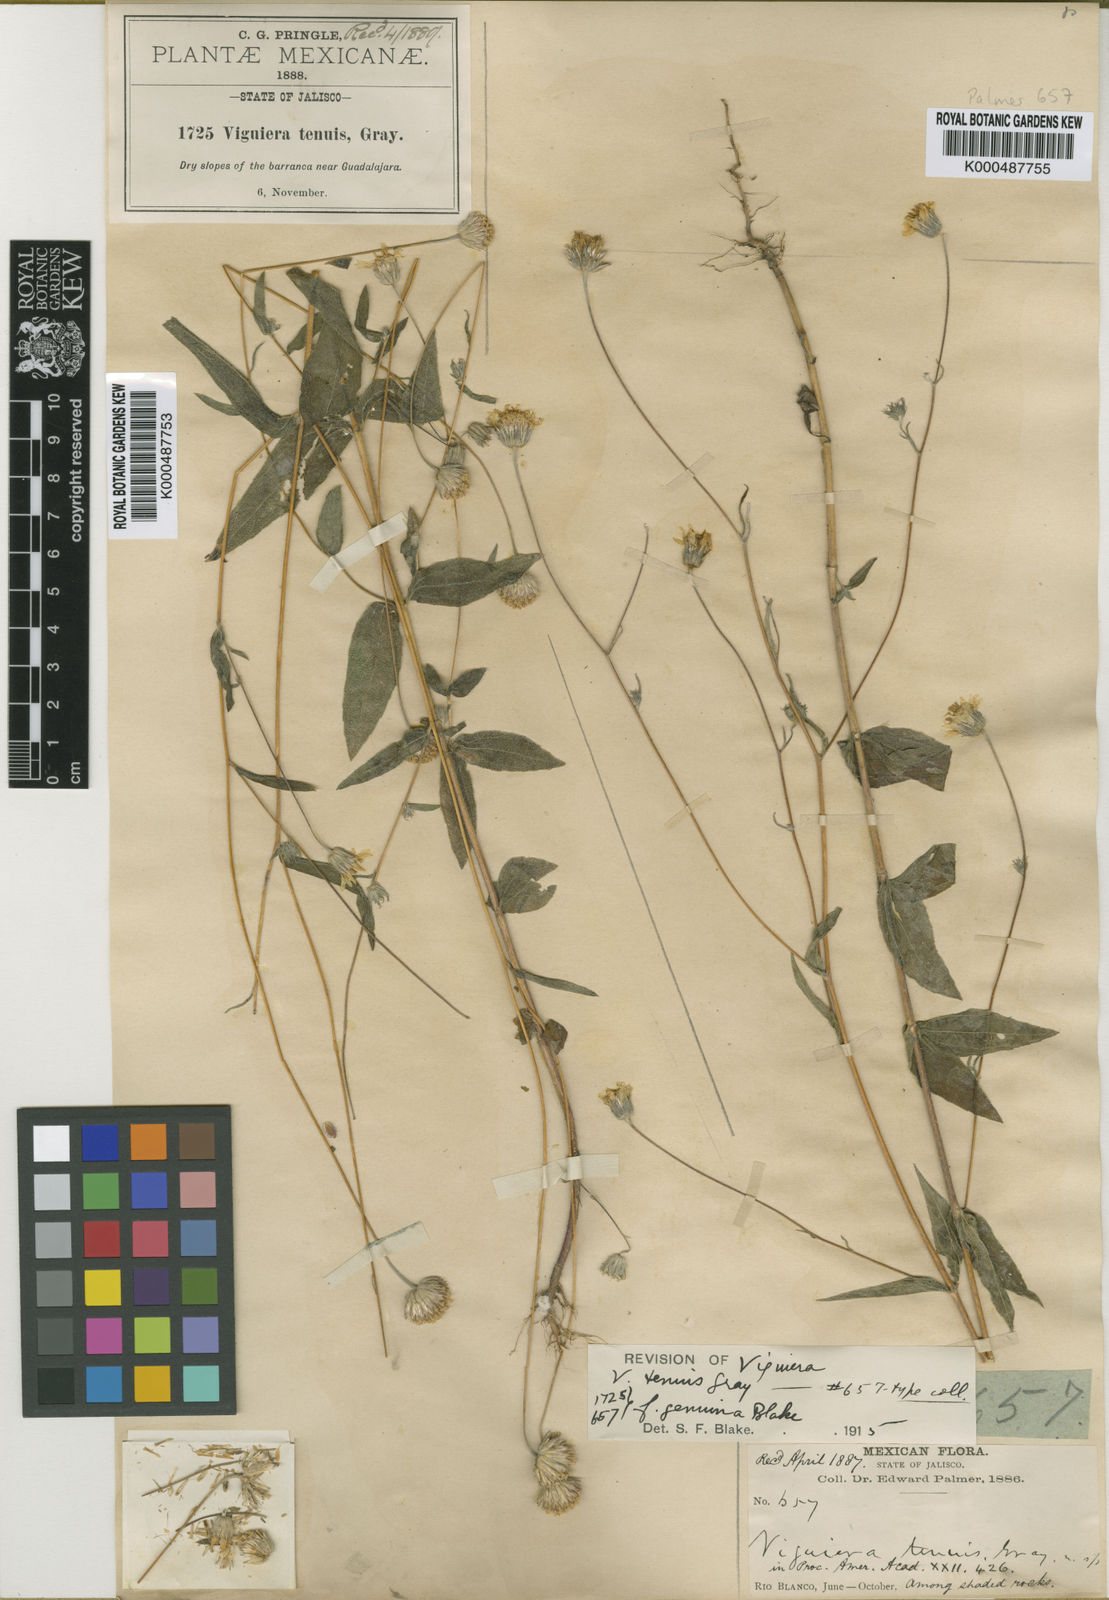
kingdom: Plantae
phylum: Tracheophyta
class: Magnoliopsida
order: Asterales
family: Asteraceae
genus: Hymenostephium
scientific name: Hymenostephium tenue
